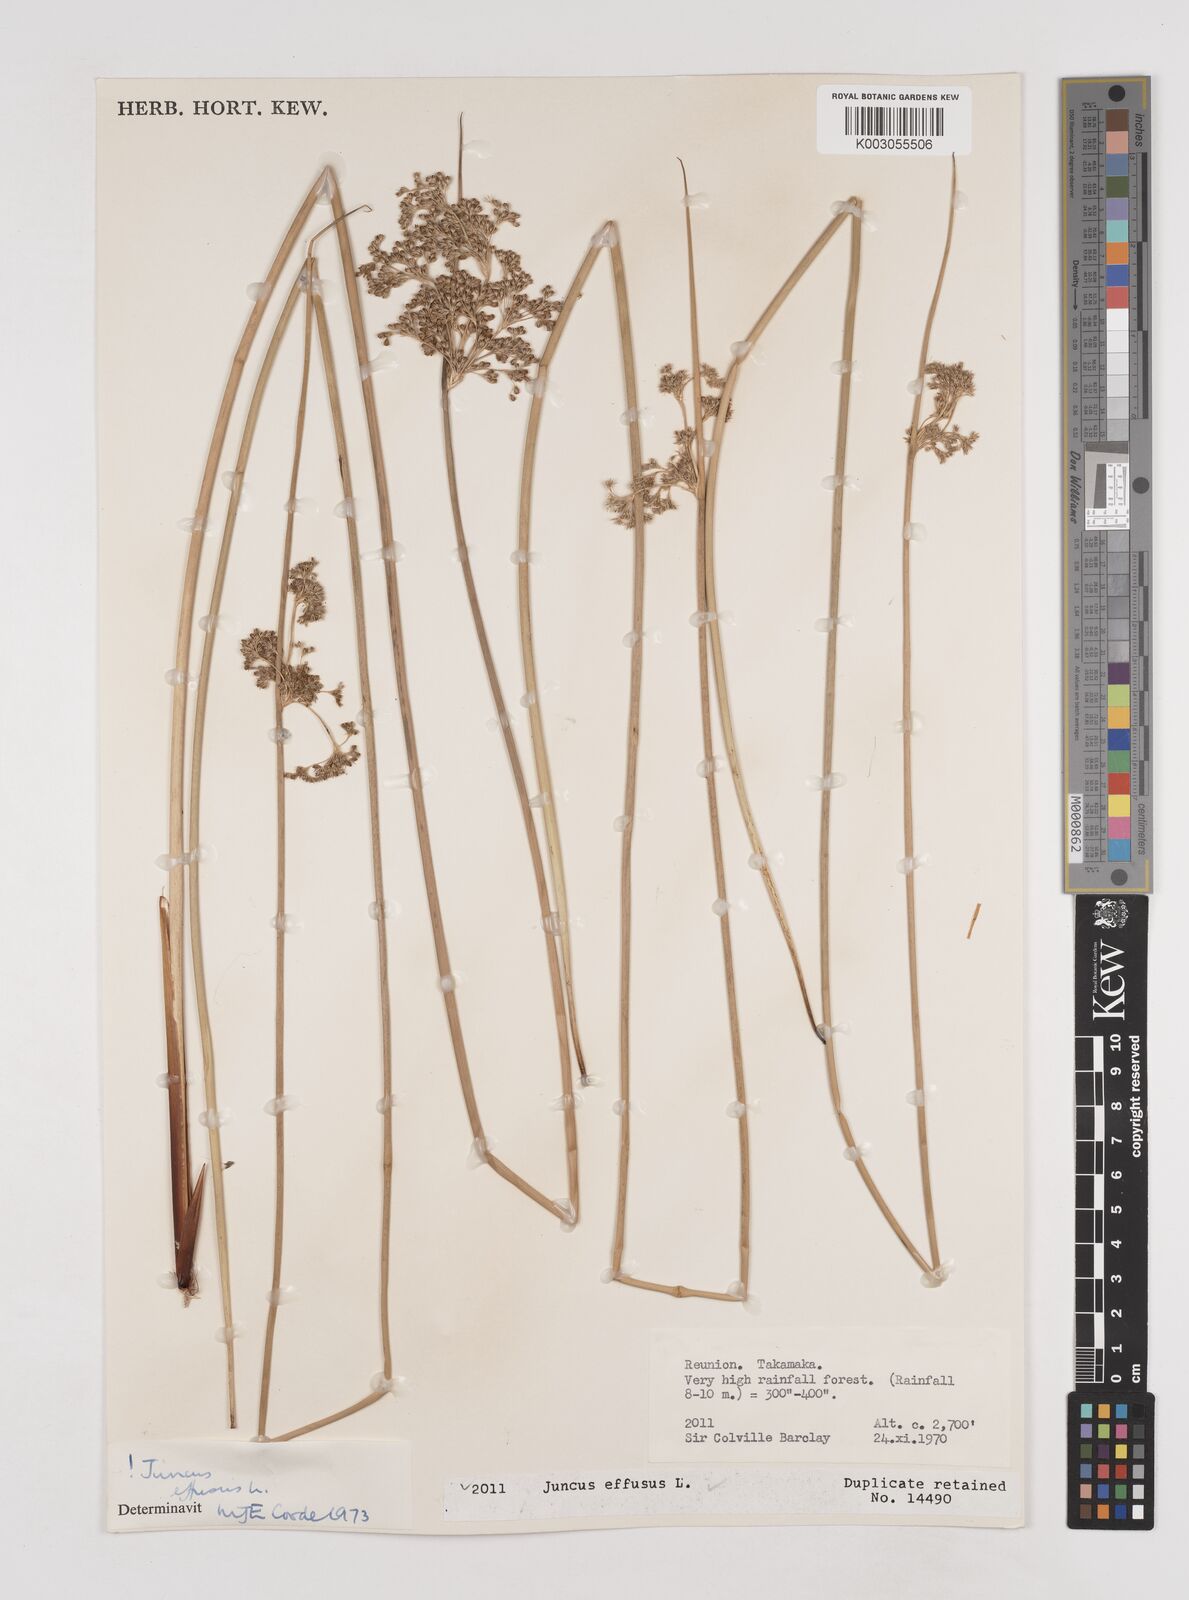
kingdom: Plantae
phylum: Tracheophyta
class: Liliopsida
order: Poales
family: Juncaceae
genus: Juncus
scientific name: Juncus effusus
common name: Soft rush
